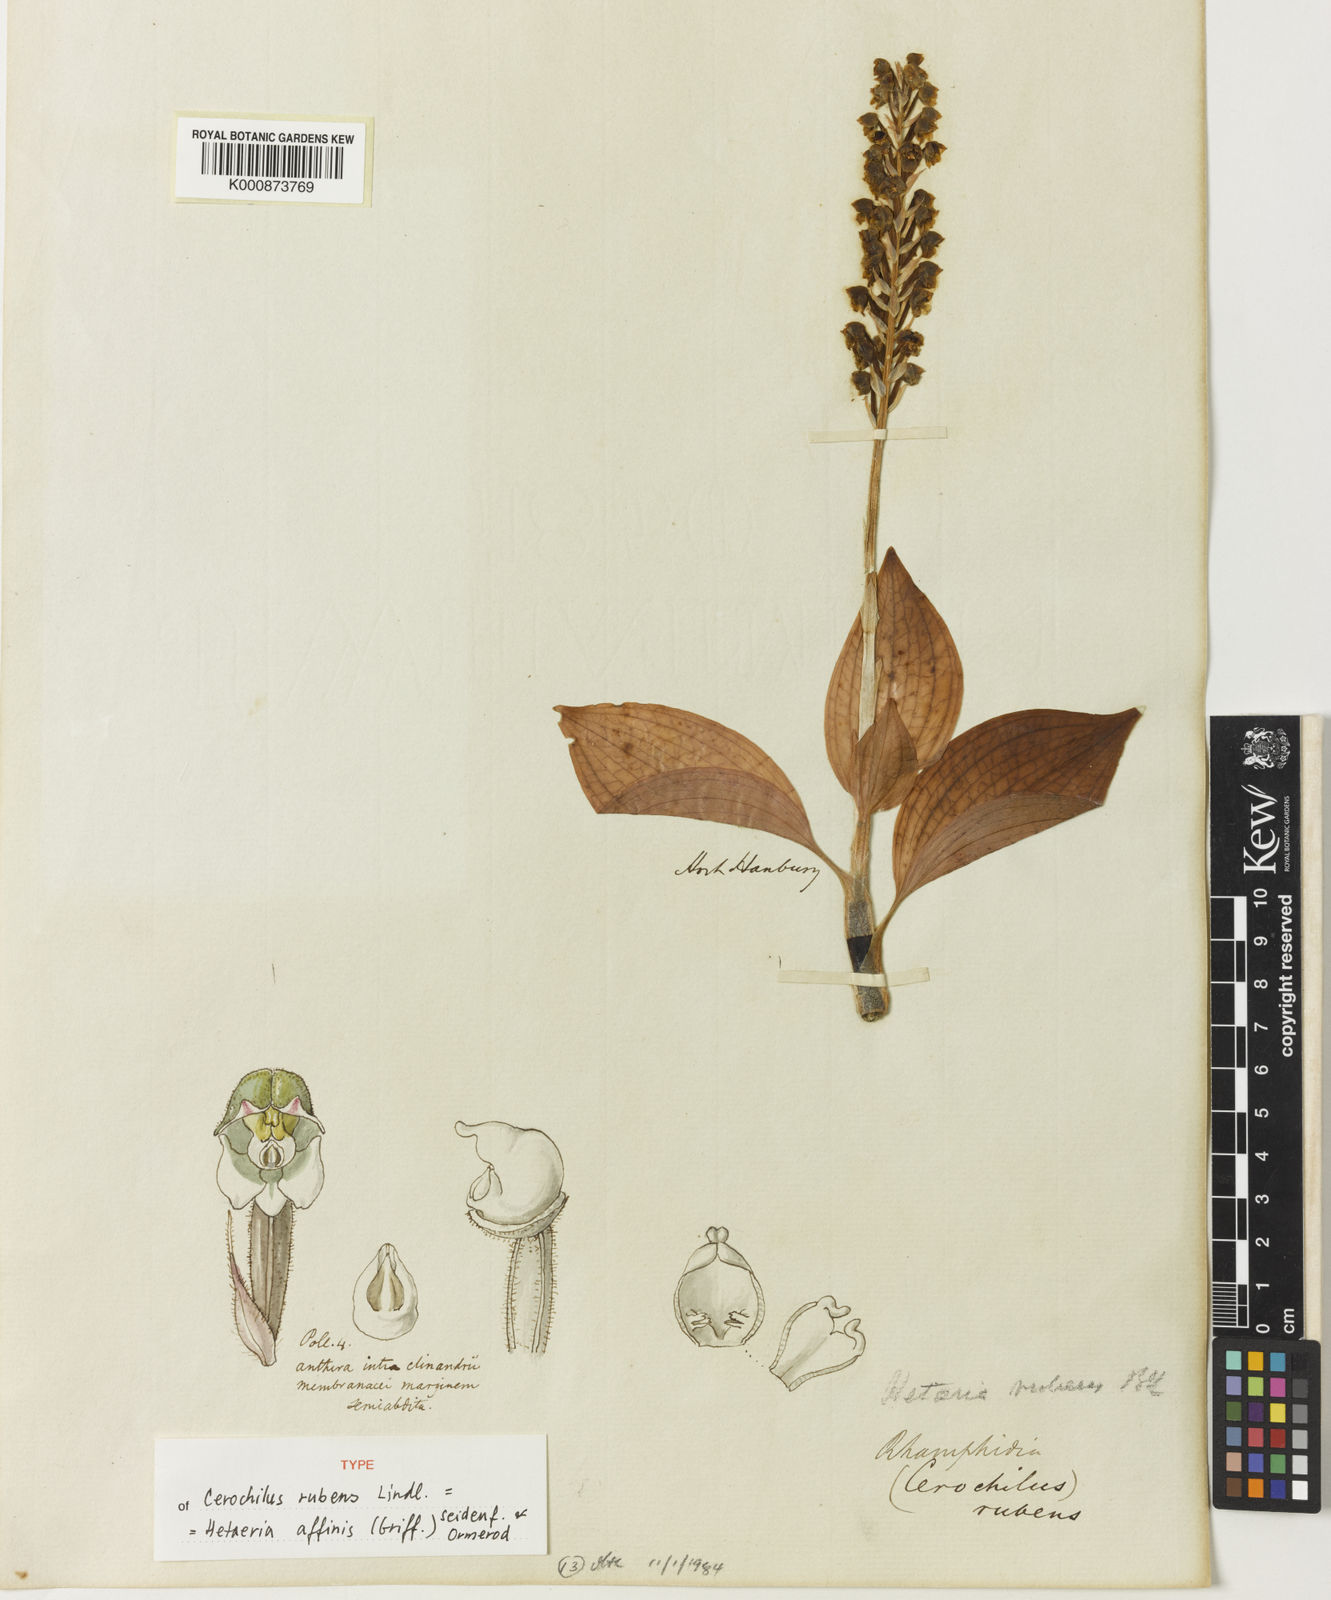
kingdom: Plantae
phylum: Tracheophyta
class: Liliopsida
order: Asparagales
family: Orchidaceae
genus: Hetaeria
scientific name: Hetaeria affinis
